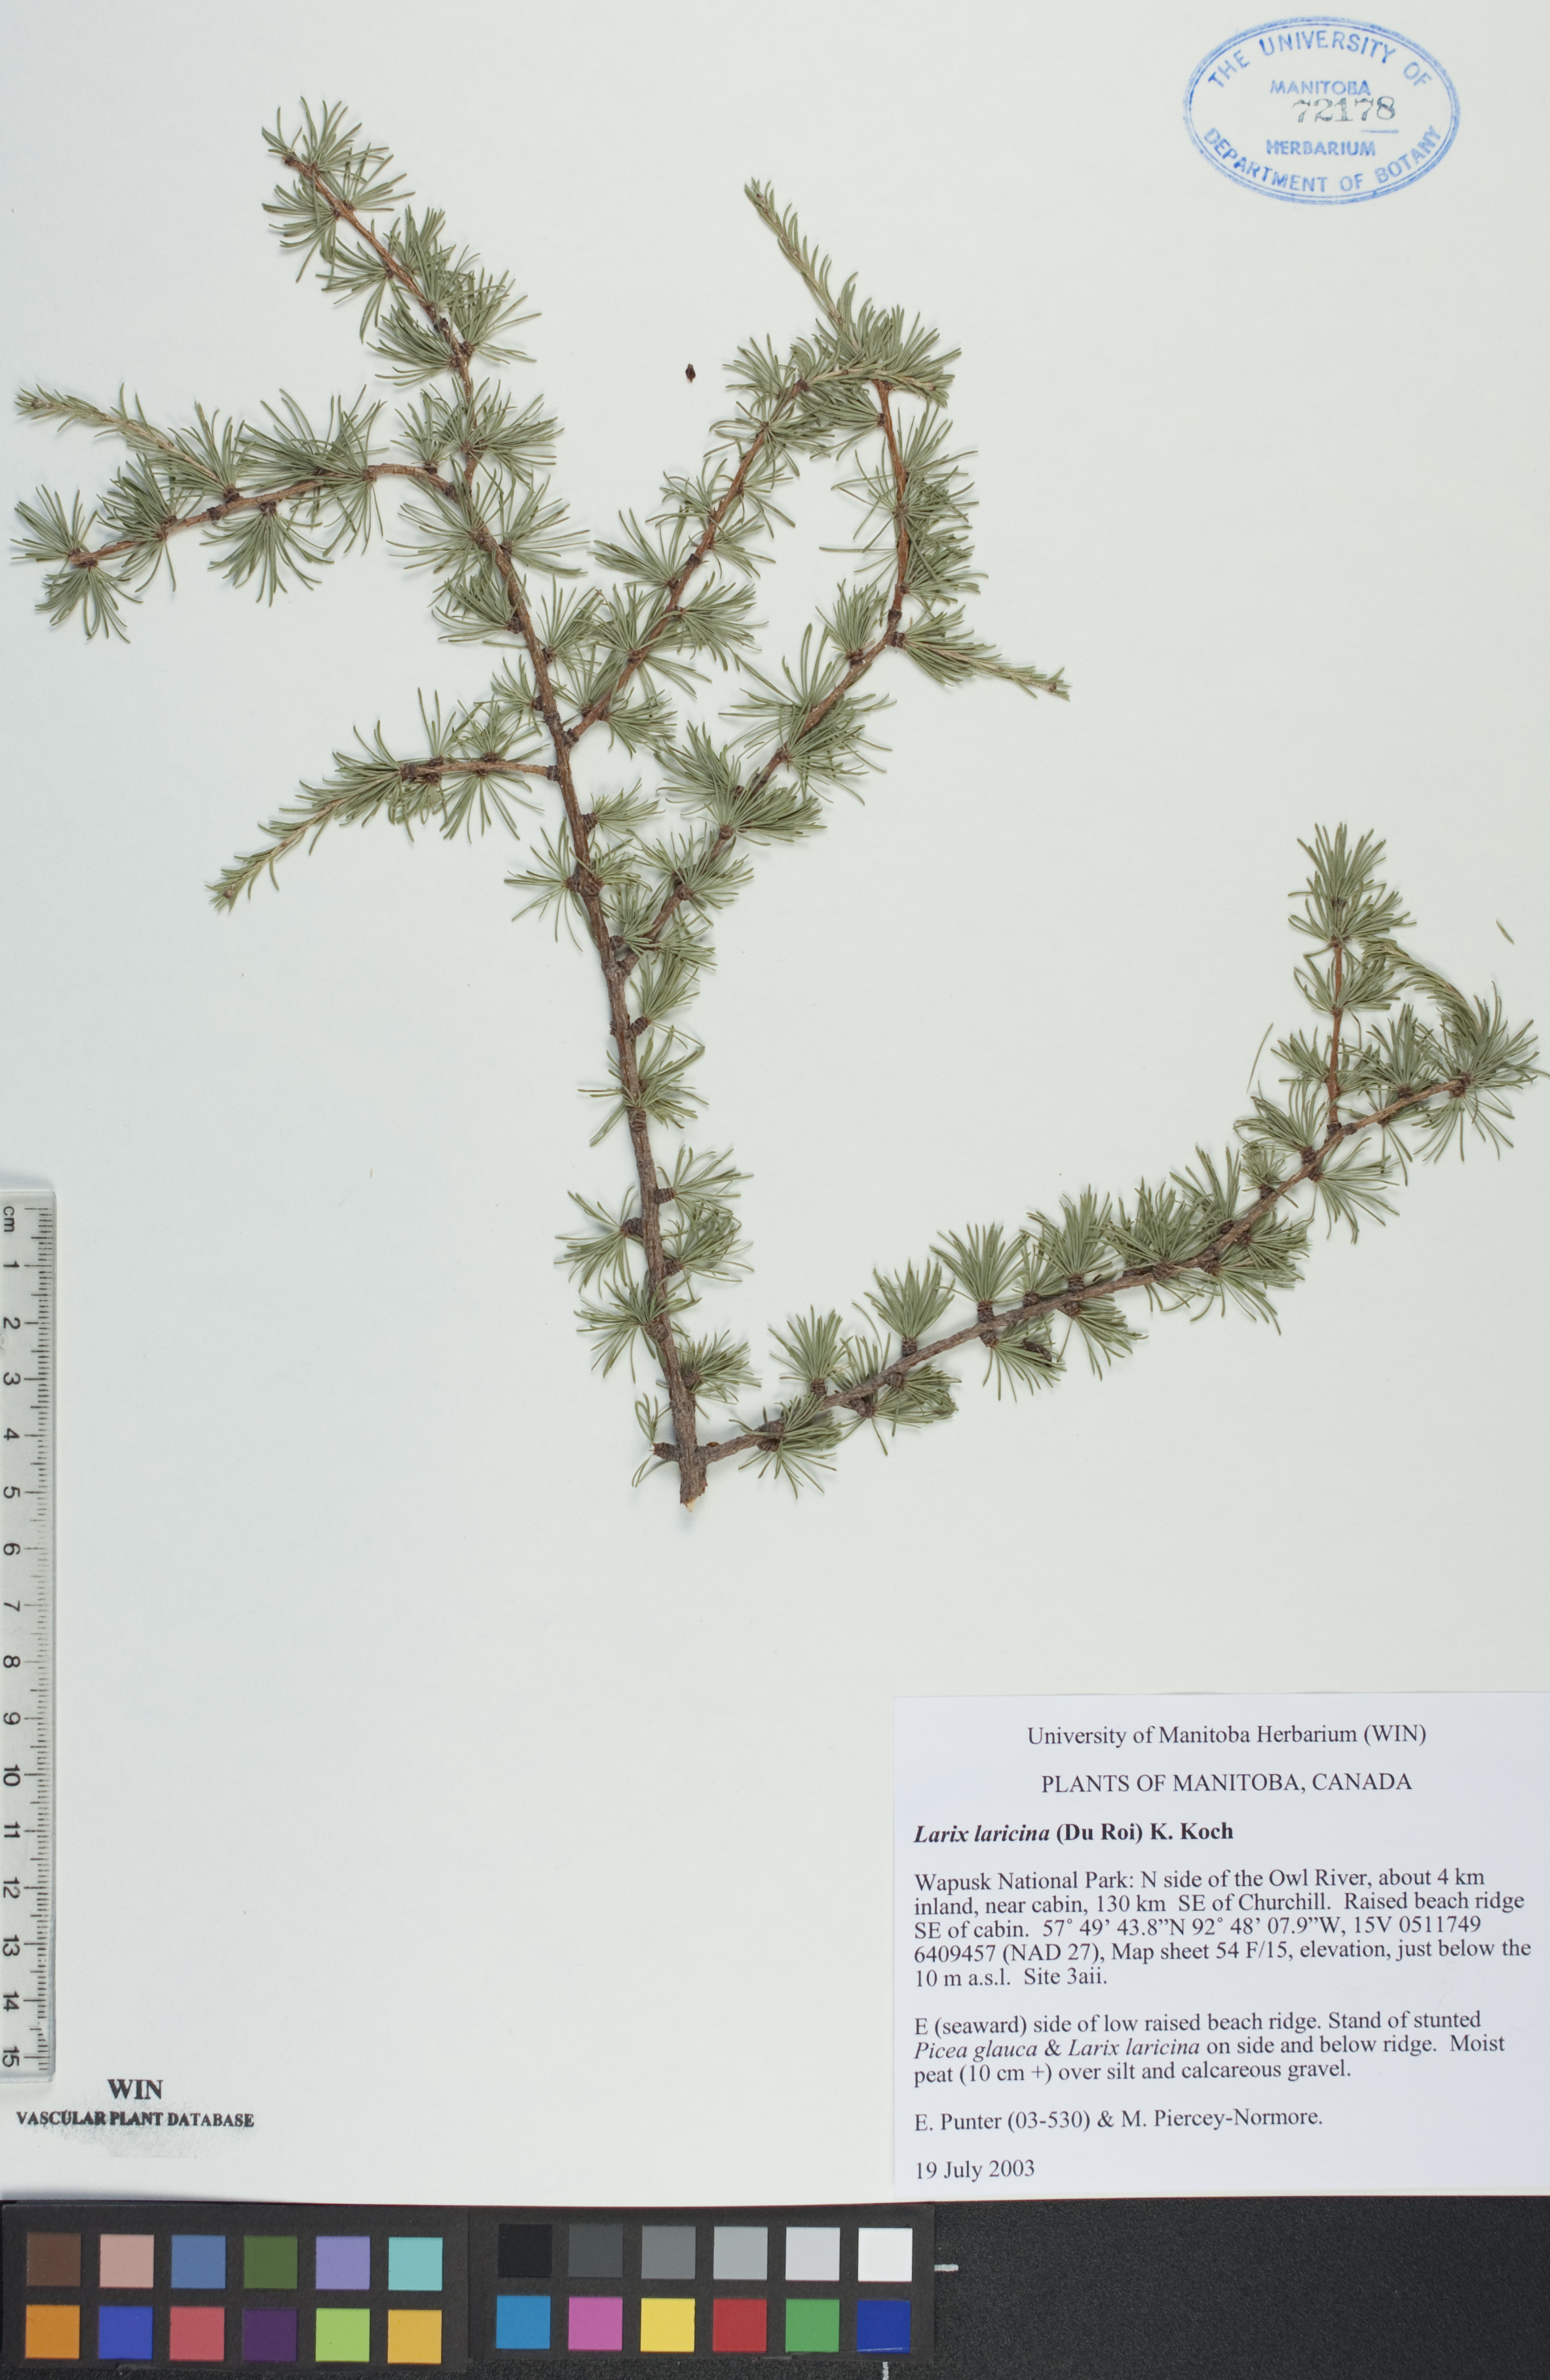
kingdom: Plantae
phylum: Tracheophyta
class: Pinopsida
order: Pinales
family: Pinaceae
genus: Larix
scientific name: Larix laricina
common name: American larch
